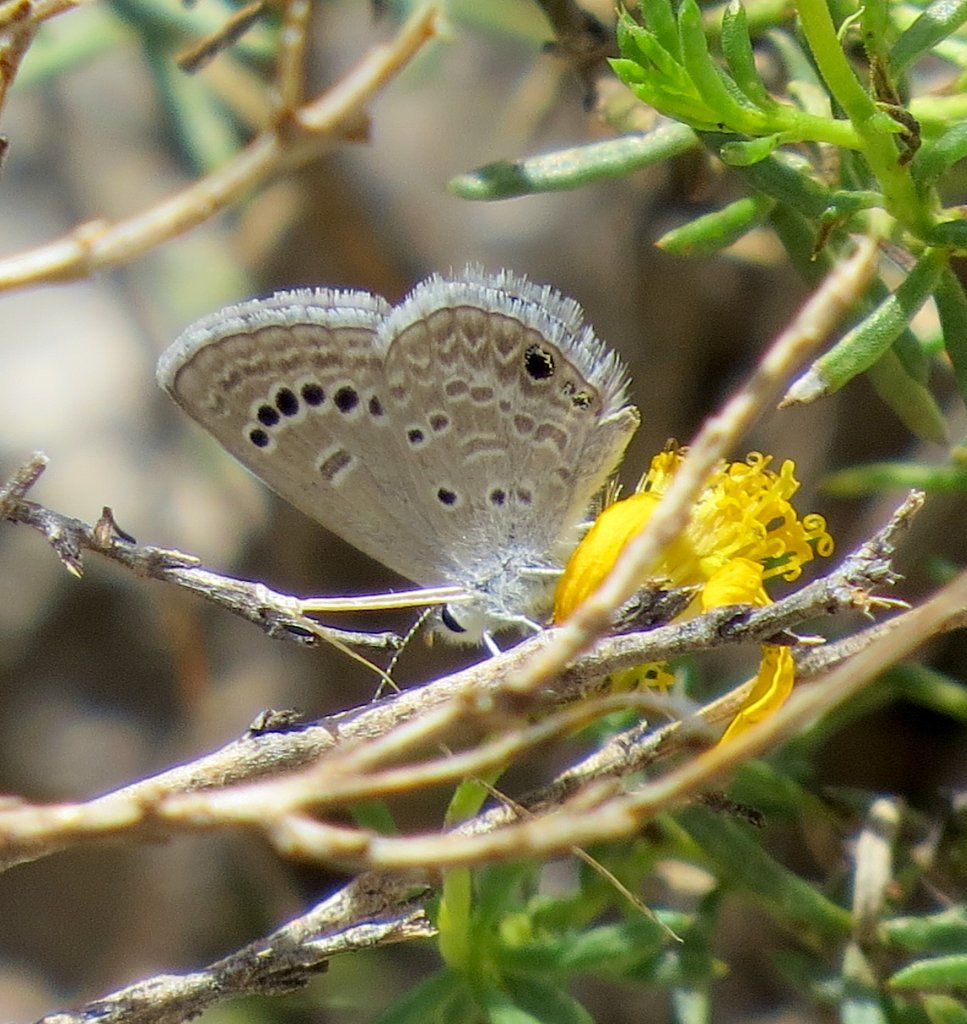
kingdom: Animalia
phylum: Arthropoda
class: Insecta
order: Lepidoptera
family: Lycaenidae
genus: Echinargus
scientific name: Echinargus isola
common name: Reakirt's Blue
